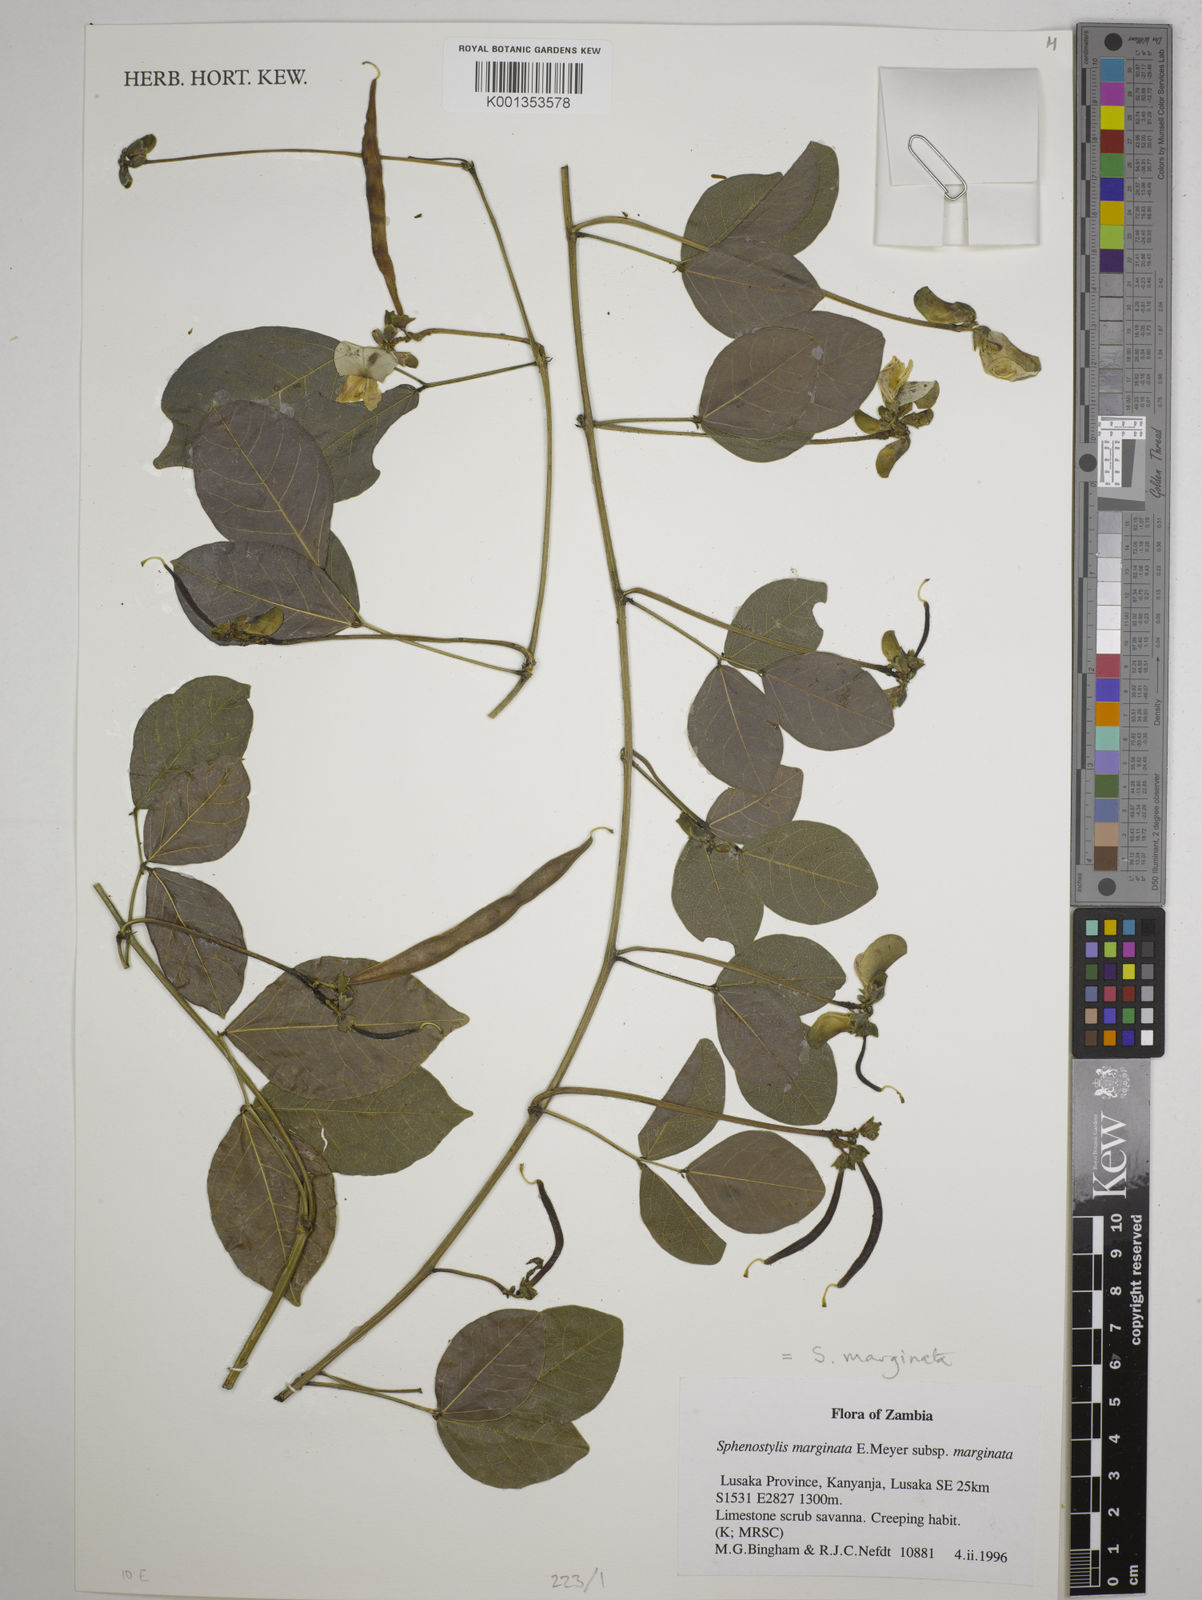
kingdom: Plantae
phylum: Tracheophyta
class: Magnoliopsida
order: Fabales
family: Fabaceae
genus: Sphenostylis
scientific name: Sphenostylis
